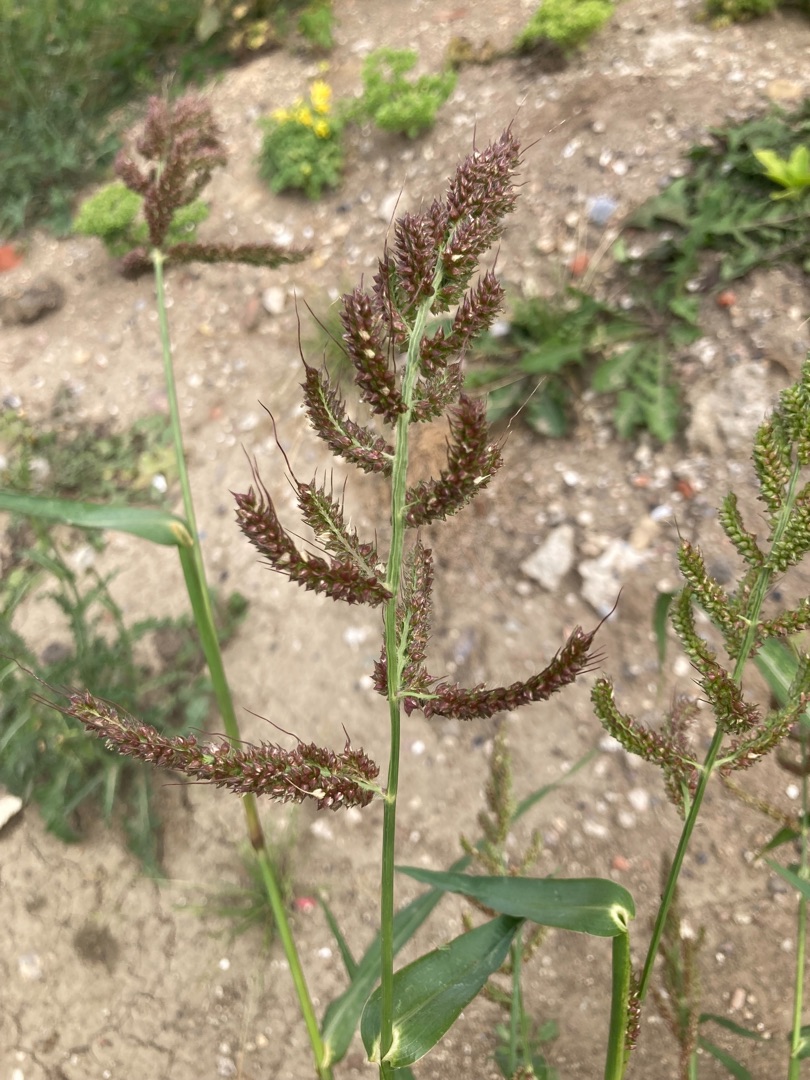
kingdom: Plantae
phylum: Tracheophyta
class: Liliopsida
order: Poales
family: Poaceae
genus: Echinochloa
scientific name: Echinochloa crus-galli
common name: Almindelig hanespore
